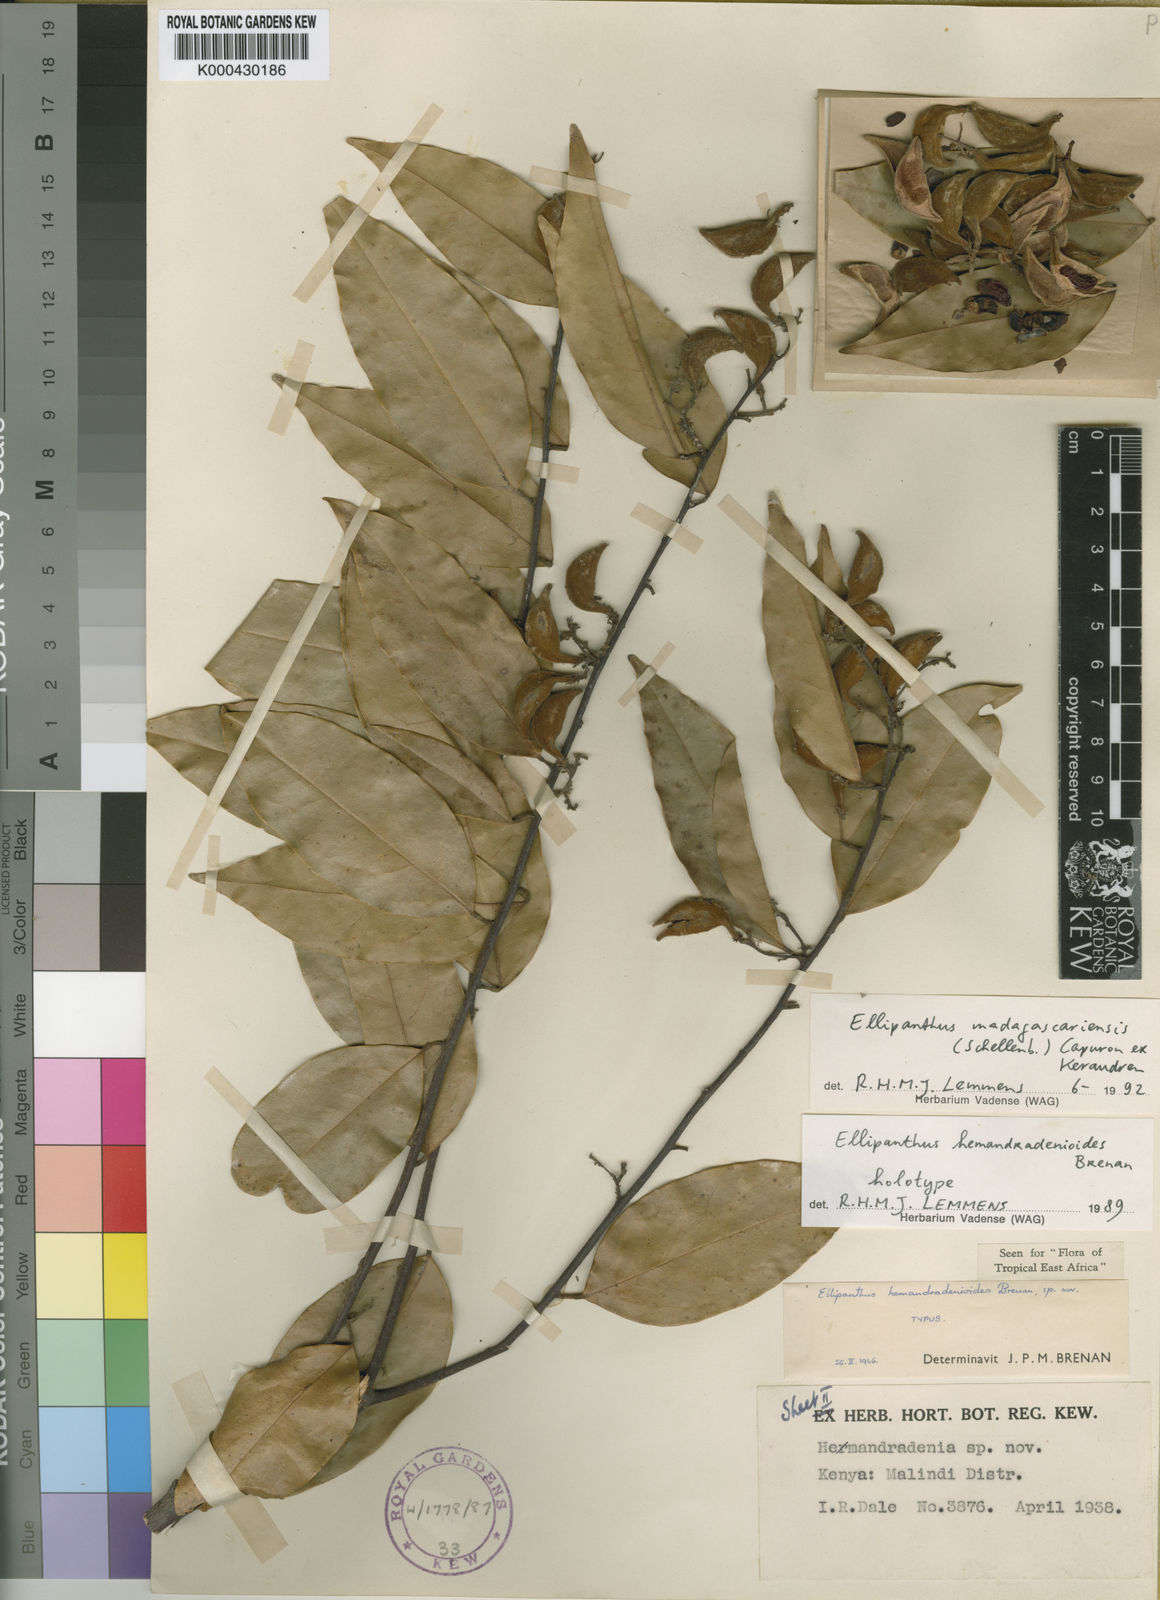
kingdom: Plantae
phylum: Tracheophyta
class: Magnoliopsida
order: Oxalidales
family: Connaraceae
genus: Ellipanthus
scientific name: Ellipanthus madagascariensis
